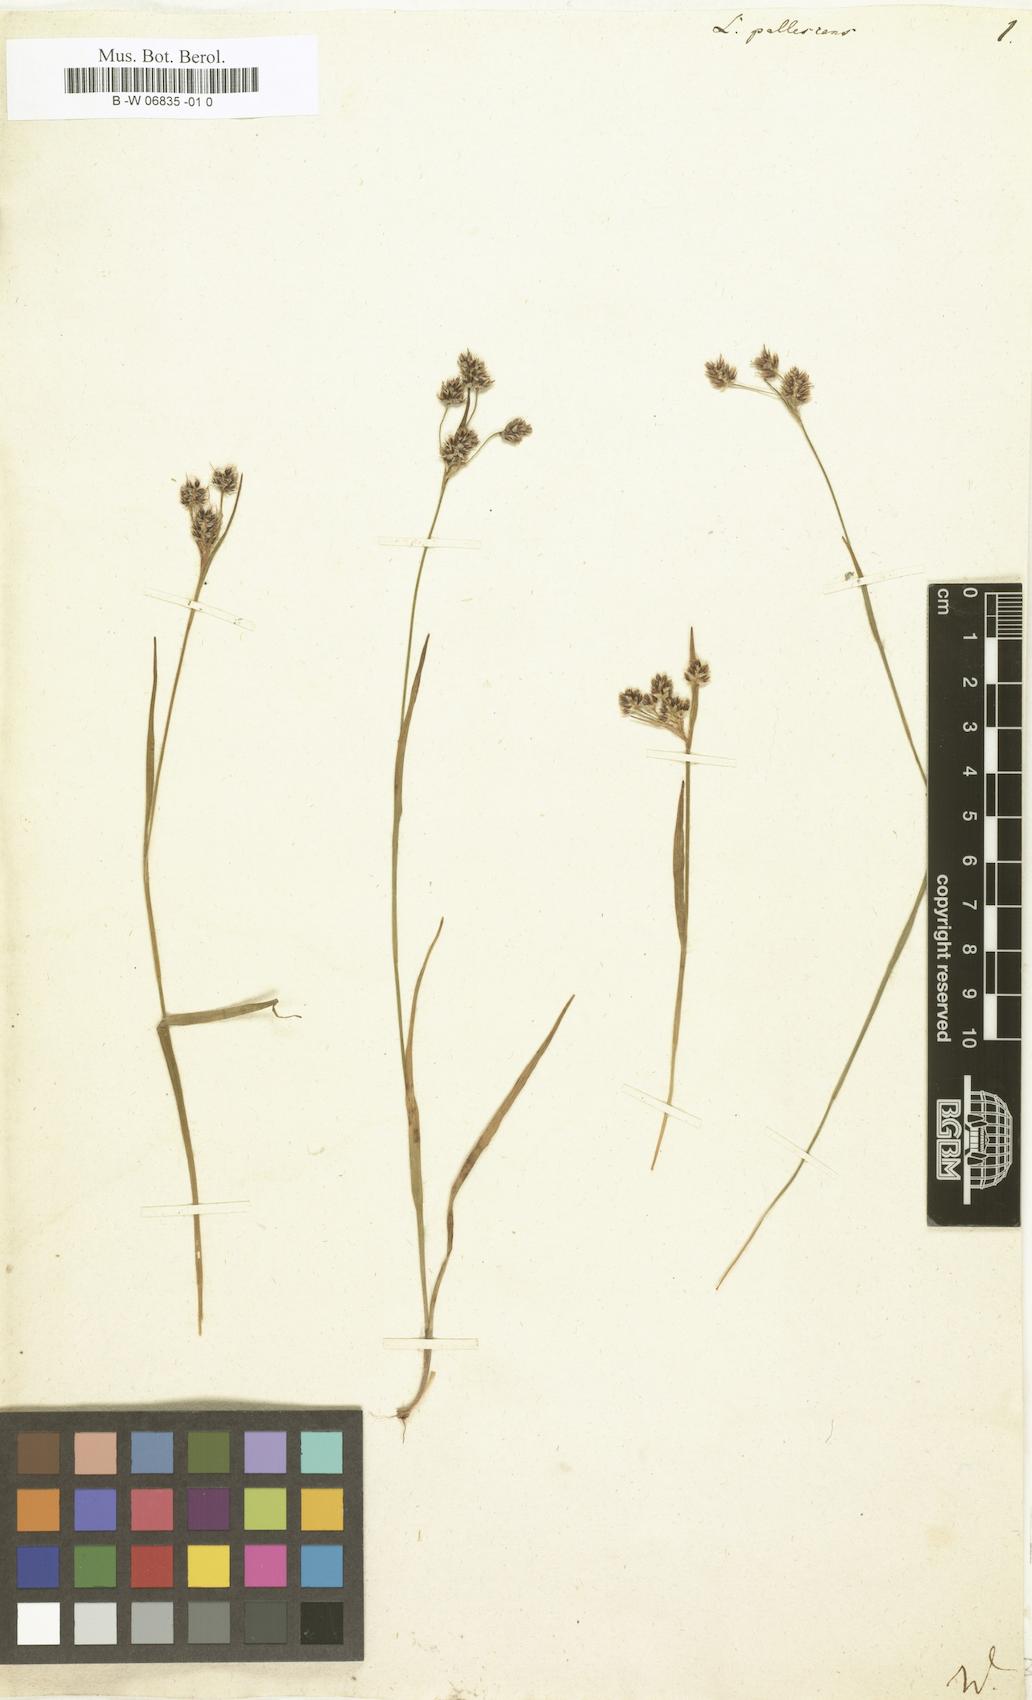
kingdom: Plantae
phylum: Tracheophyta
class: Liliopsida
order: Poales
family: Juncaceae
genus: Luzula
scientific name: Luzula pallescens
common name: Fen wood-rush
